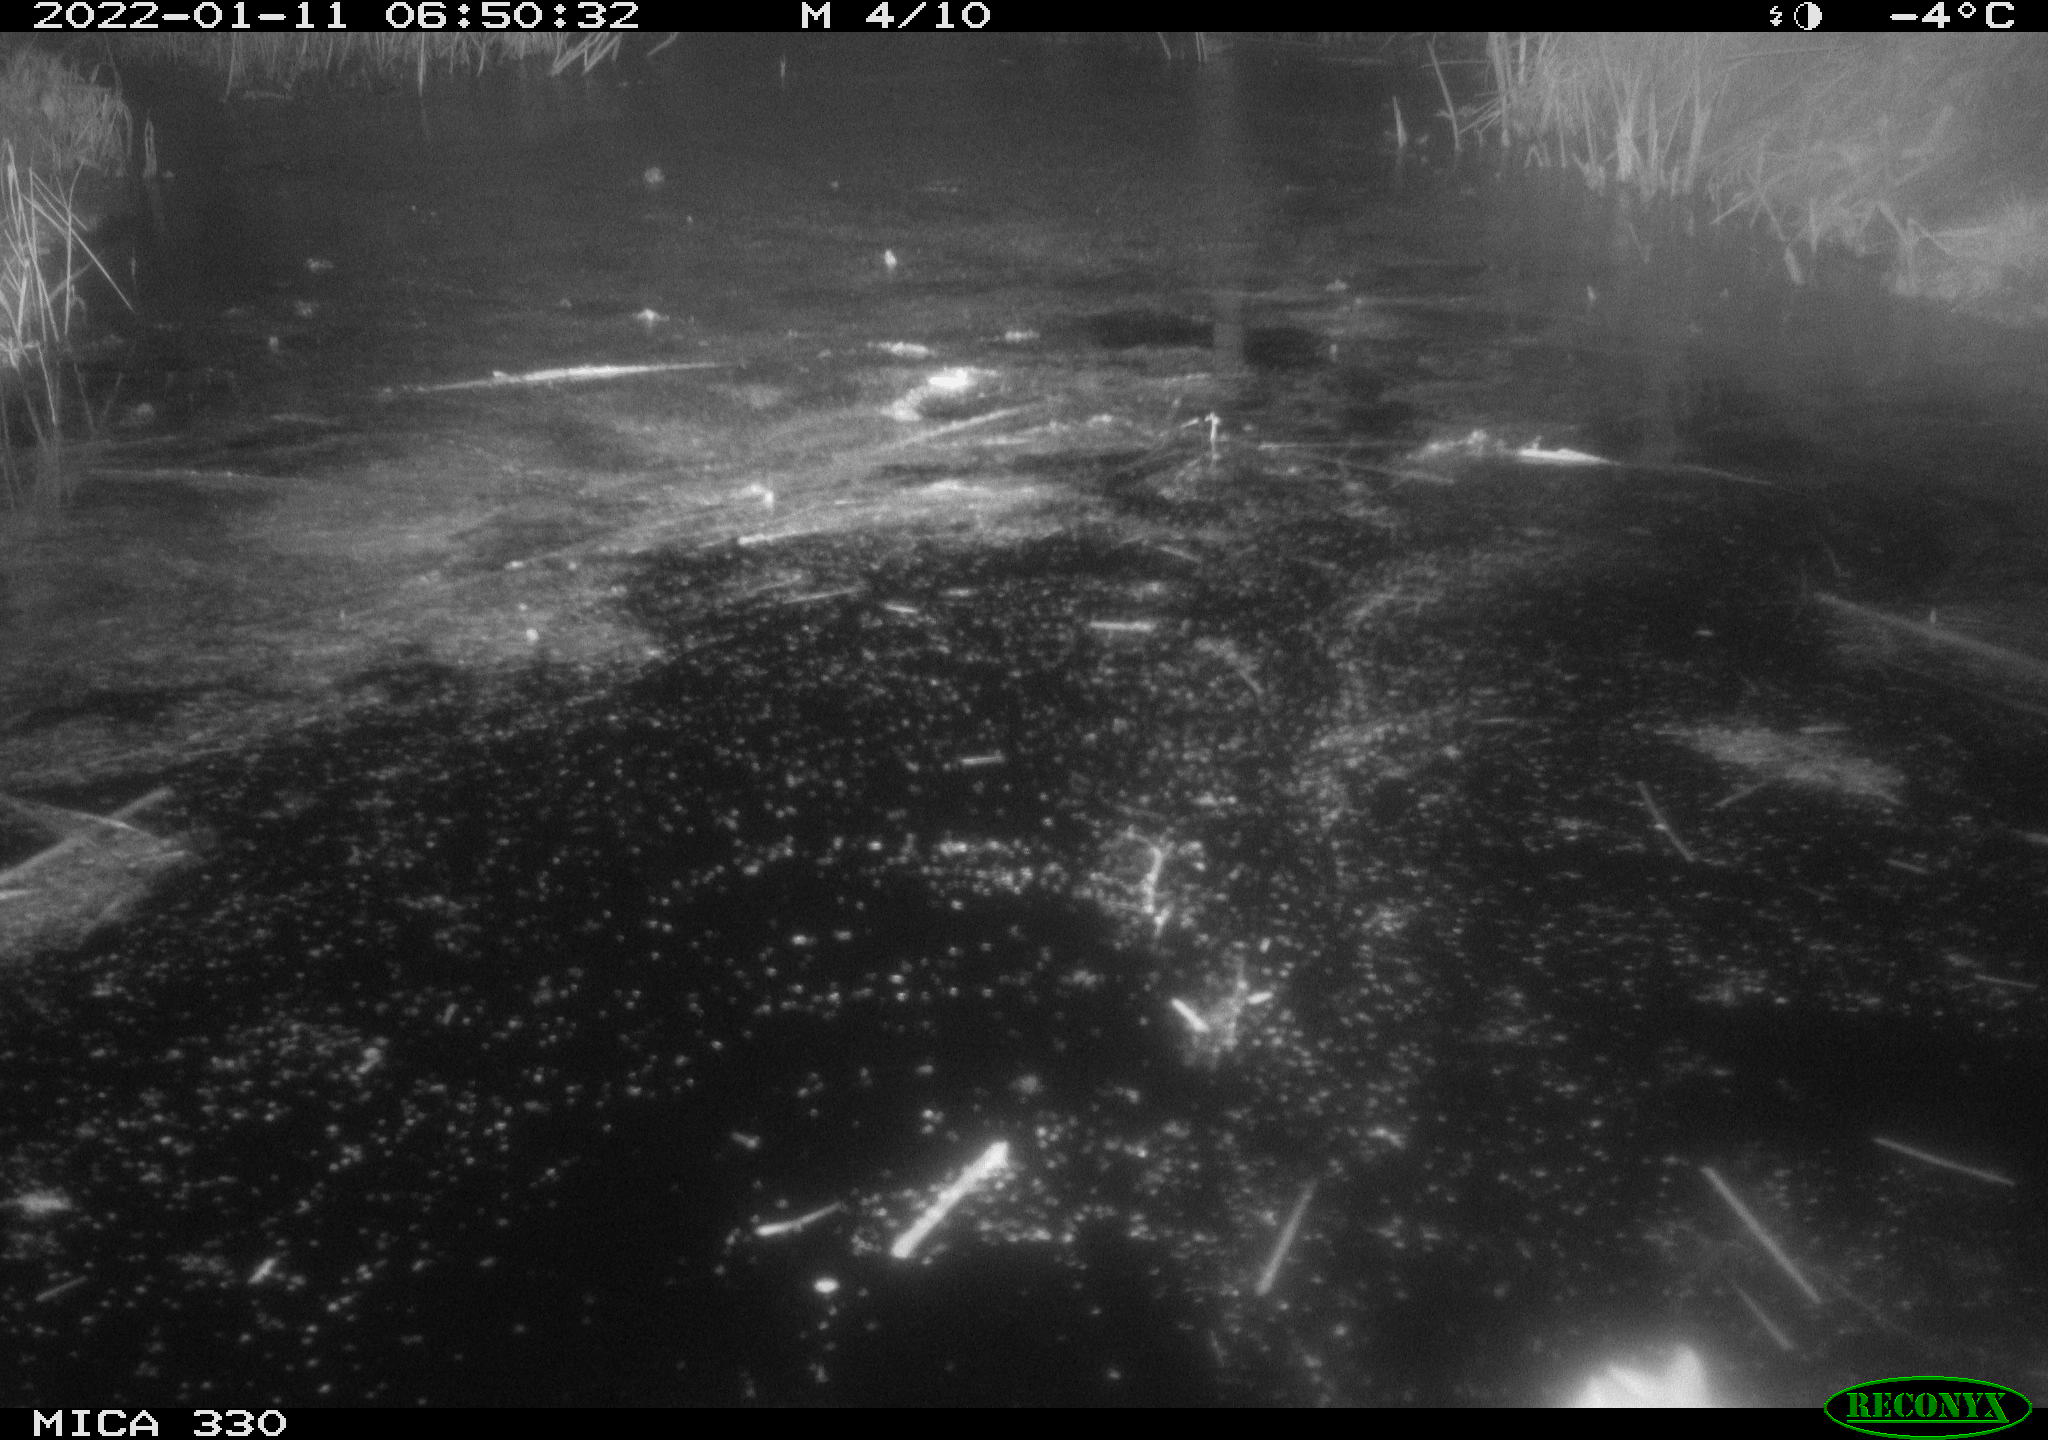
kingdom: Animalia
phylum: Chordata
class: Aves
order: Anseriformes
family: Anatidae
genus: Anas
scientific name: Anas platyrhynchos
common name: Mallard
